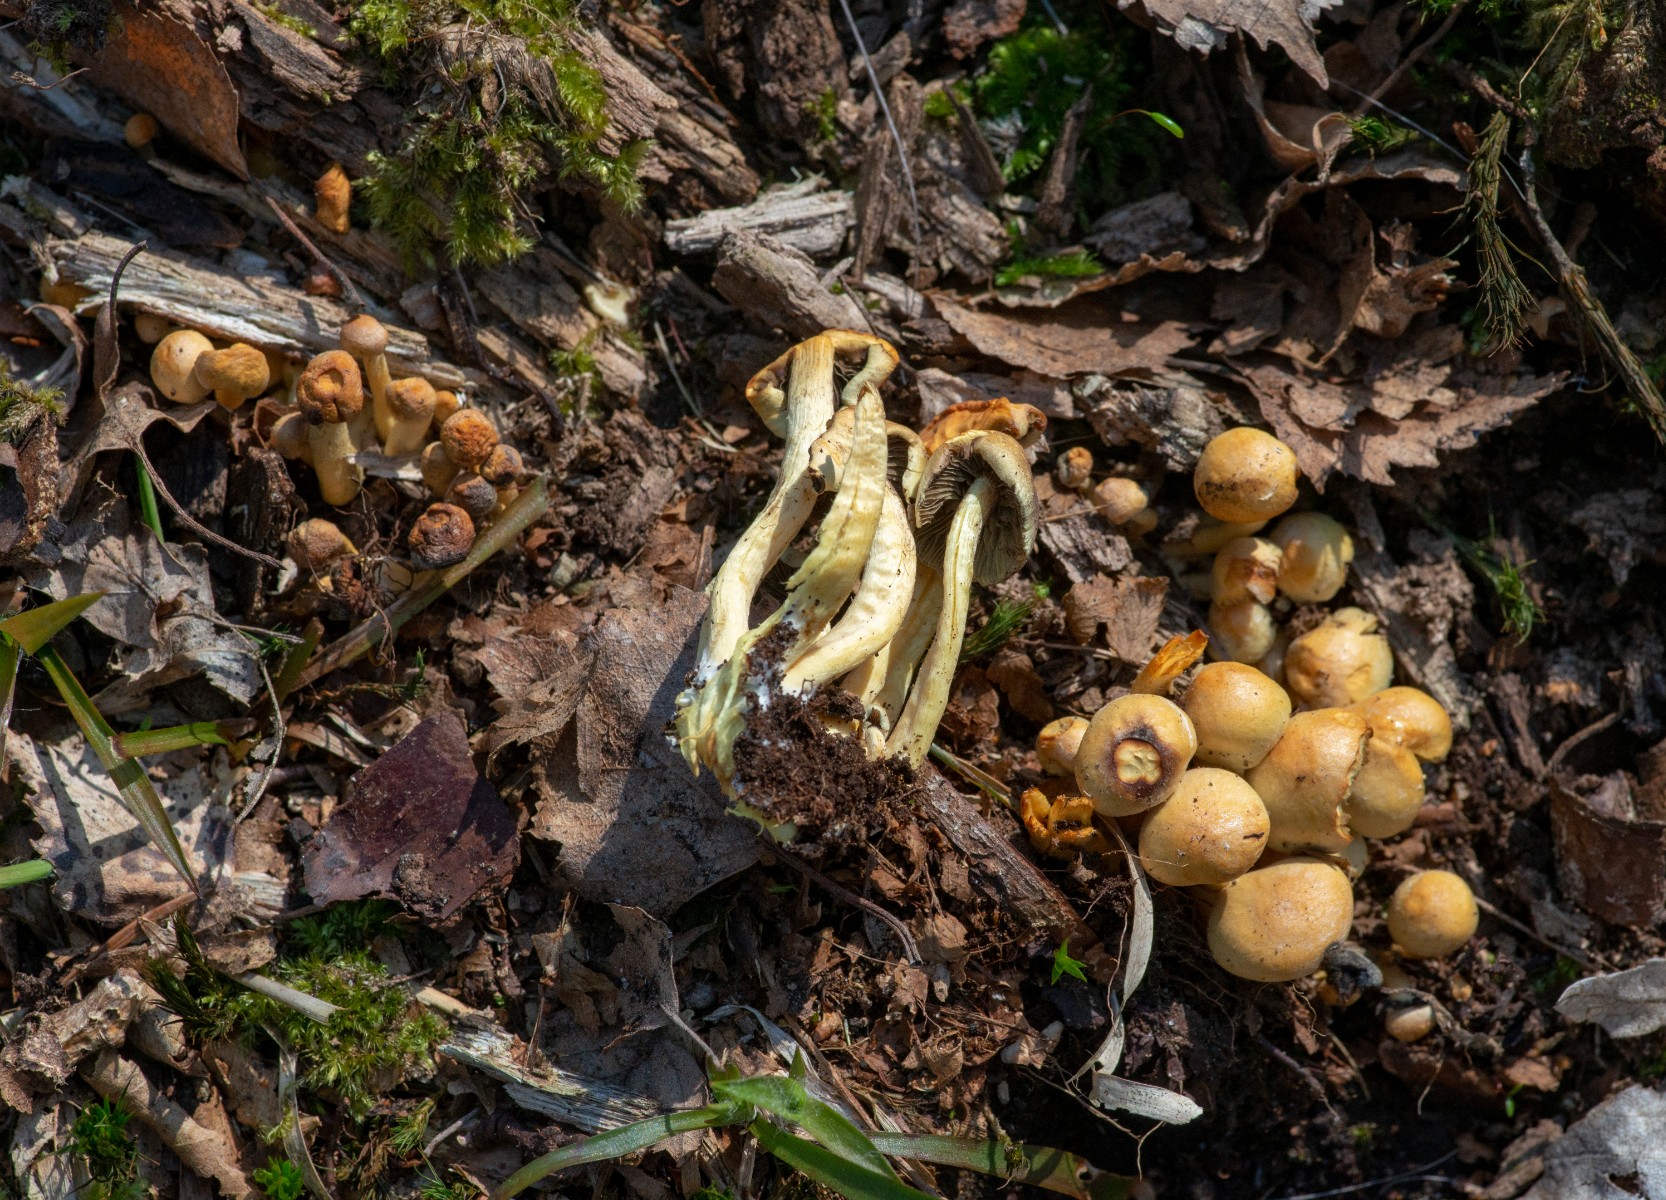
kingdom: Fungi
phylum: Basidiomycota
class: Agaricomycetes
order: Agaricales
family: Strophariaceae
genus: Hypholoma
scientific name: Hypholoma fasciculare
